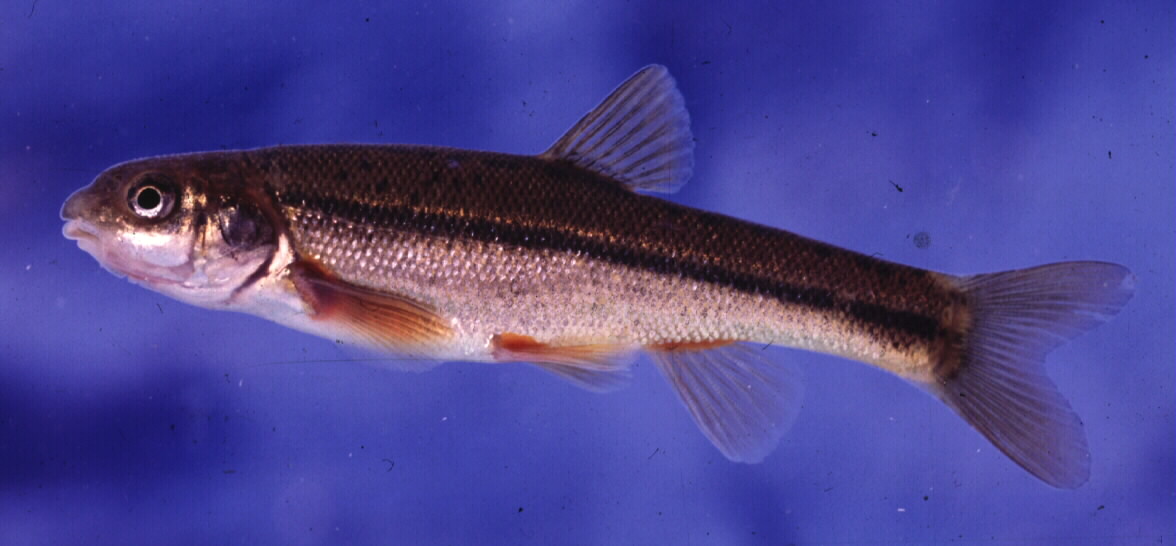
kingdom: Animalia
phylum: Chordata
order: Cypriniformes
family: Cyprinidae
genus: Pseudobarbus
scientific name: Pseudobarbus quathlambae
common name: Maluti minnow
